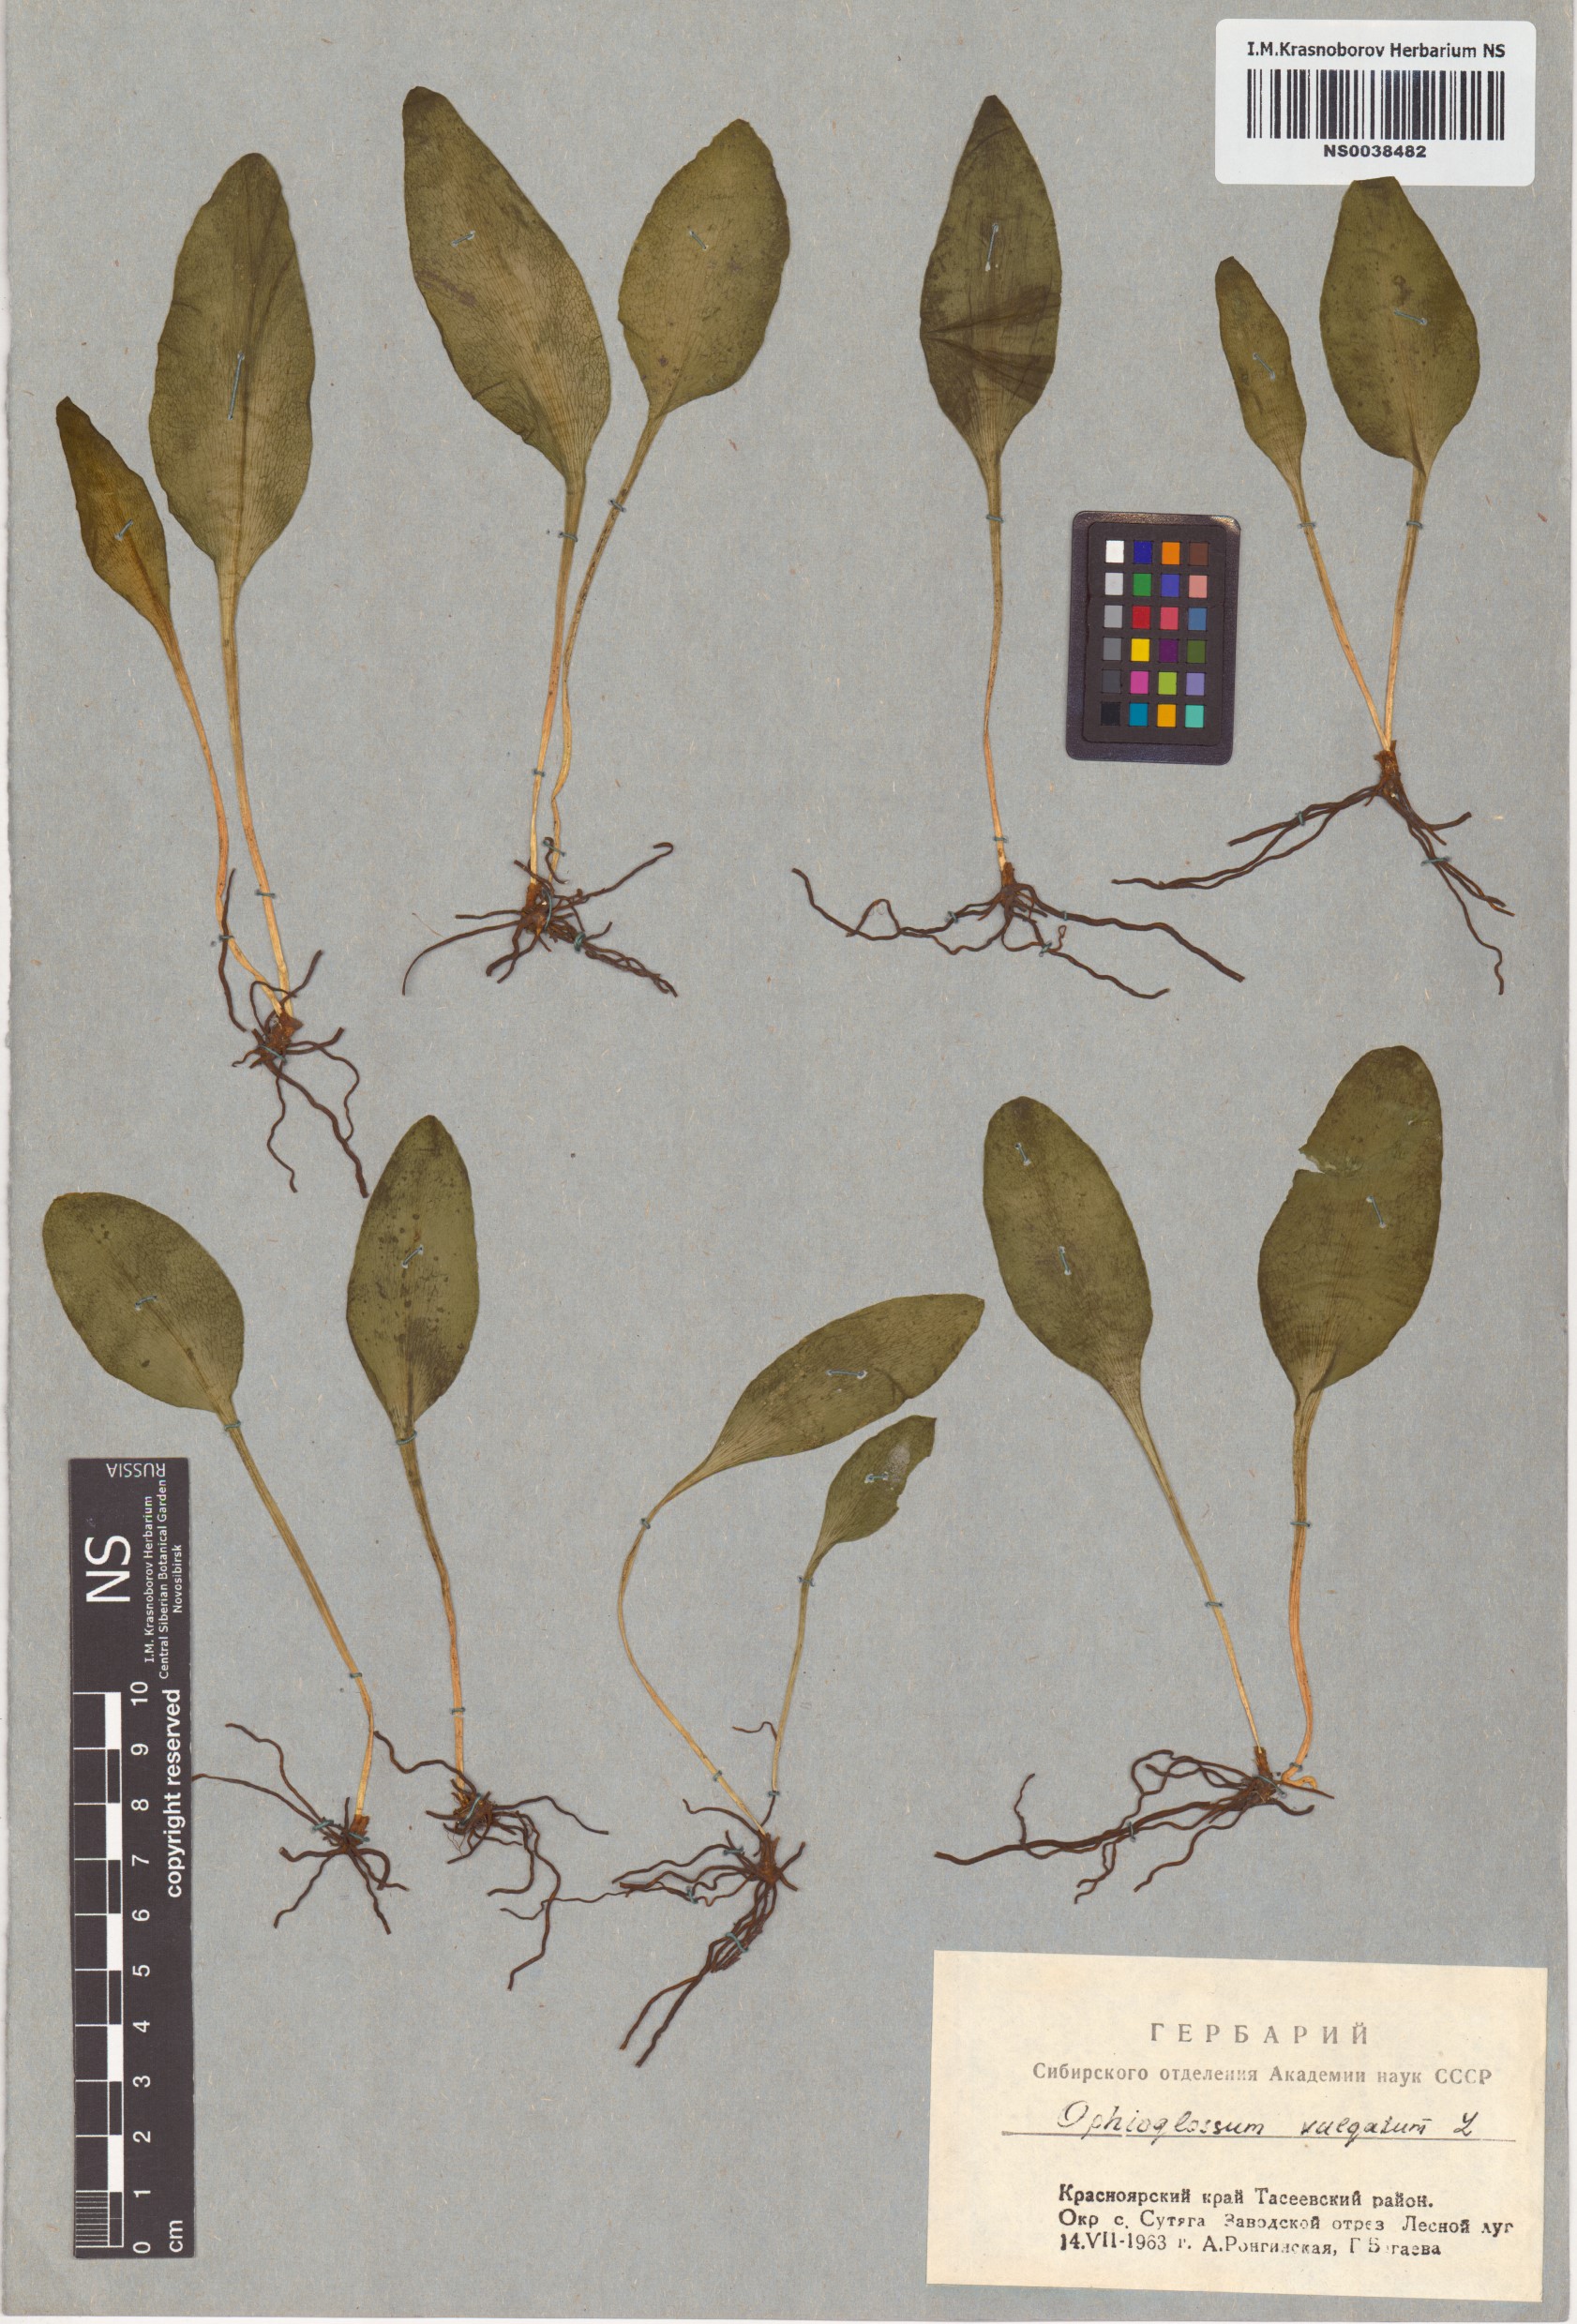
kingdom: Plantae
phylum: Tracheophyta
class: Polypodiopsida
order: Ophioglossales
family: Ophioglossaceae
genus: Ophioglossum
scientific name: Ophioglossum vulgatum
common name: Adder's-tongue
